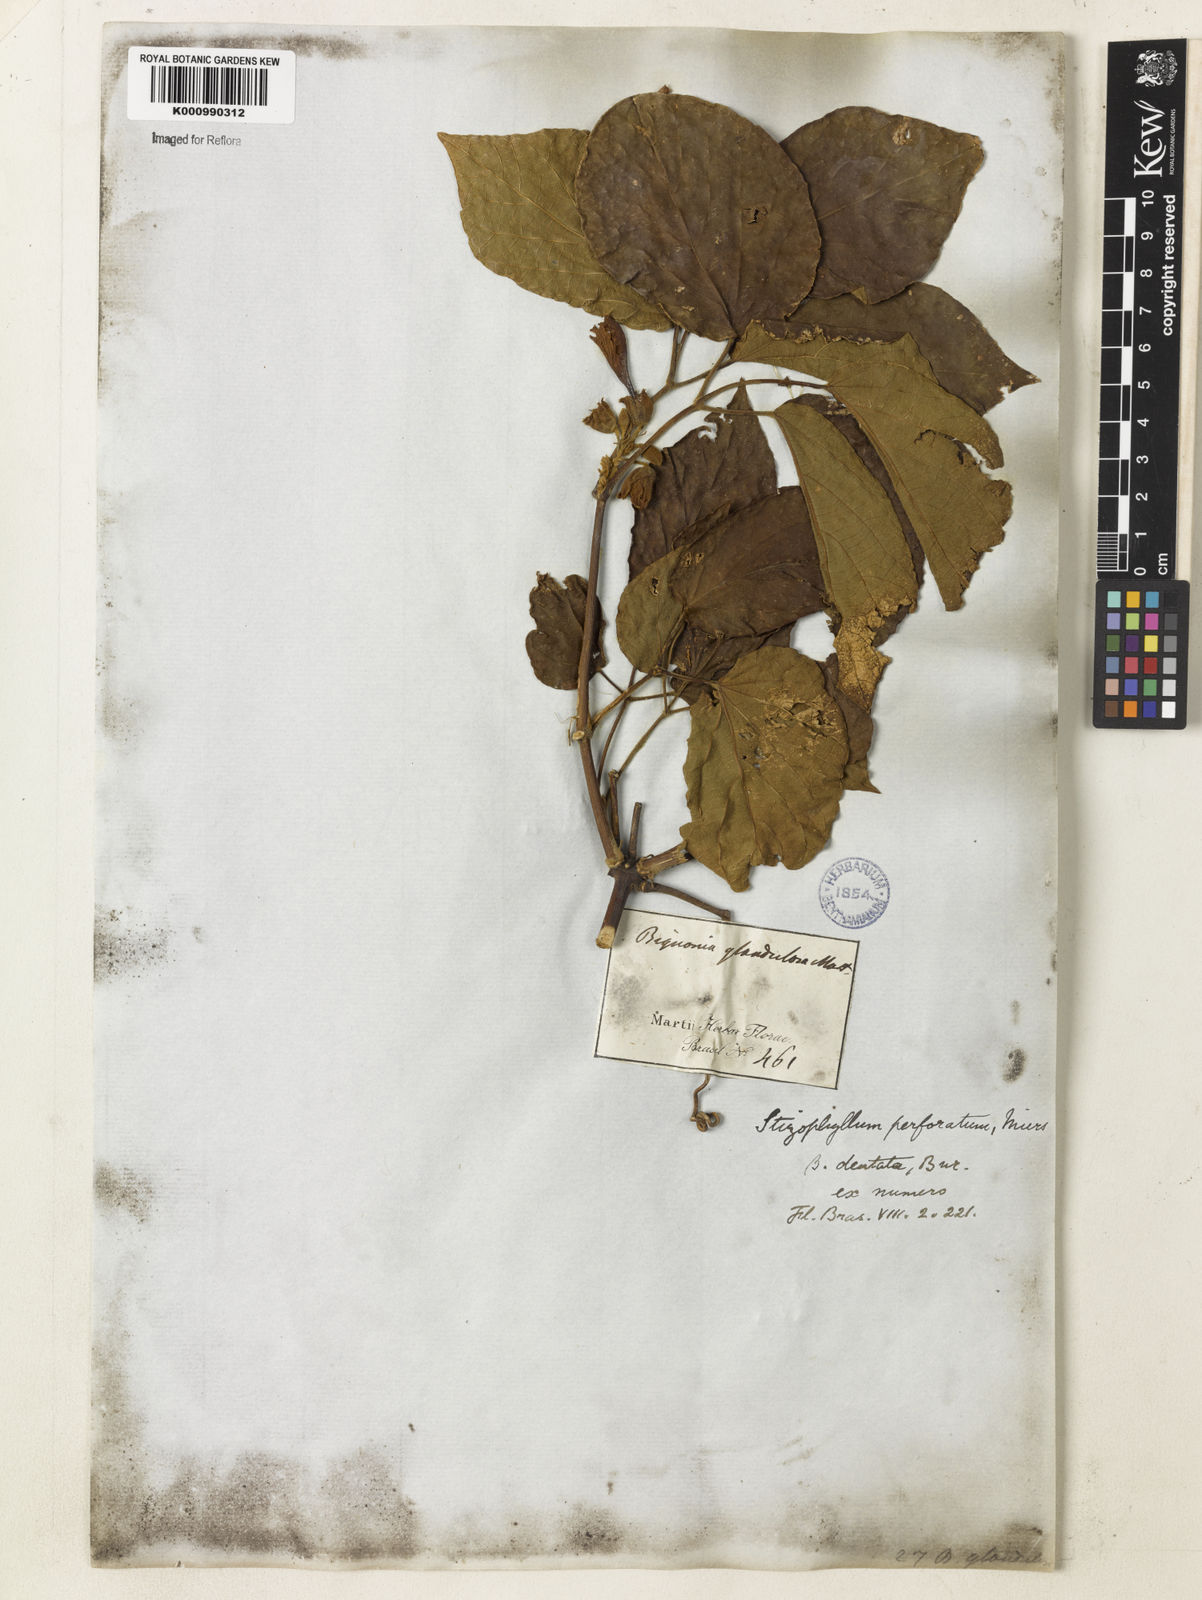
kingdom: Plantae
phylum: Tracheophyta
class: Magnoliopsida
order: Lamiales
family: Bignoniaceae
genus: Stizophyllum
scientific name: Stizophyllum perforatum
